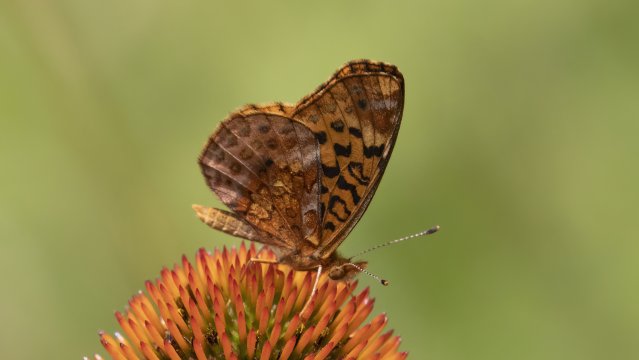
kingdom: Animalia
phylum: Arthropoda
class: Insecta
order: Lepidoptera
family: Nymphalidae
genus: Clossiana
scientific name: Clossiana toddi
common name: Meadow Fritillary
